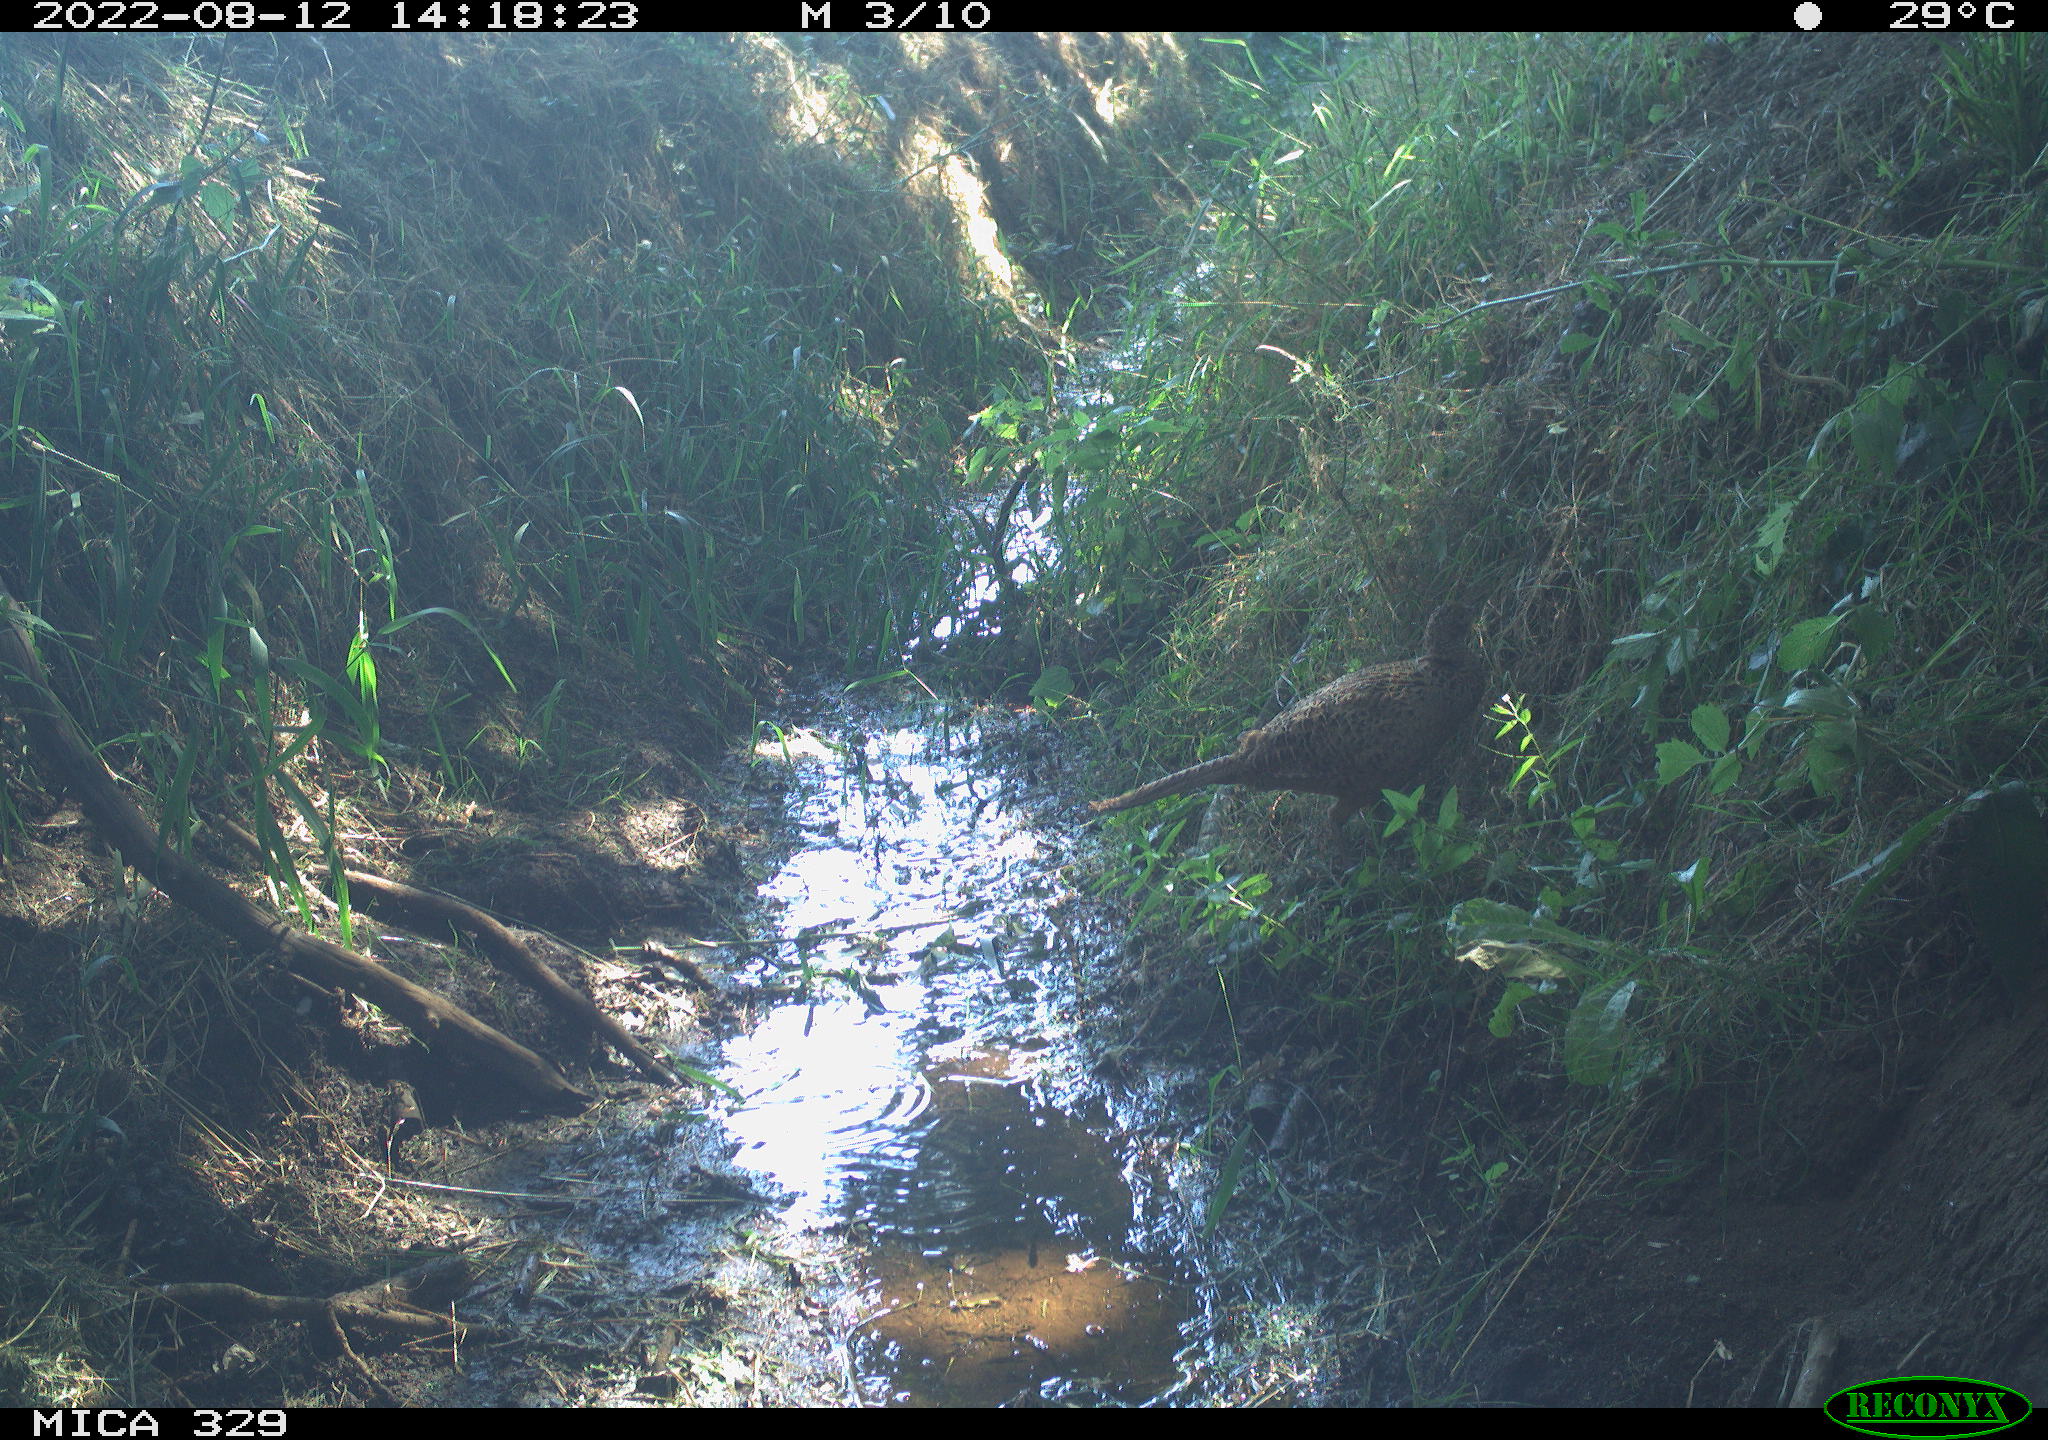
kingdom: Animalia
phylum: Chordata
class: Aves
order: Galliformes
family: Phasianidae
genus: Phasianus
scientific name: Phasianus colchicus
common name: Common pheasant
